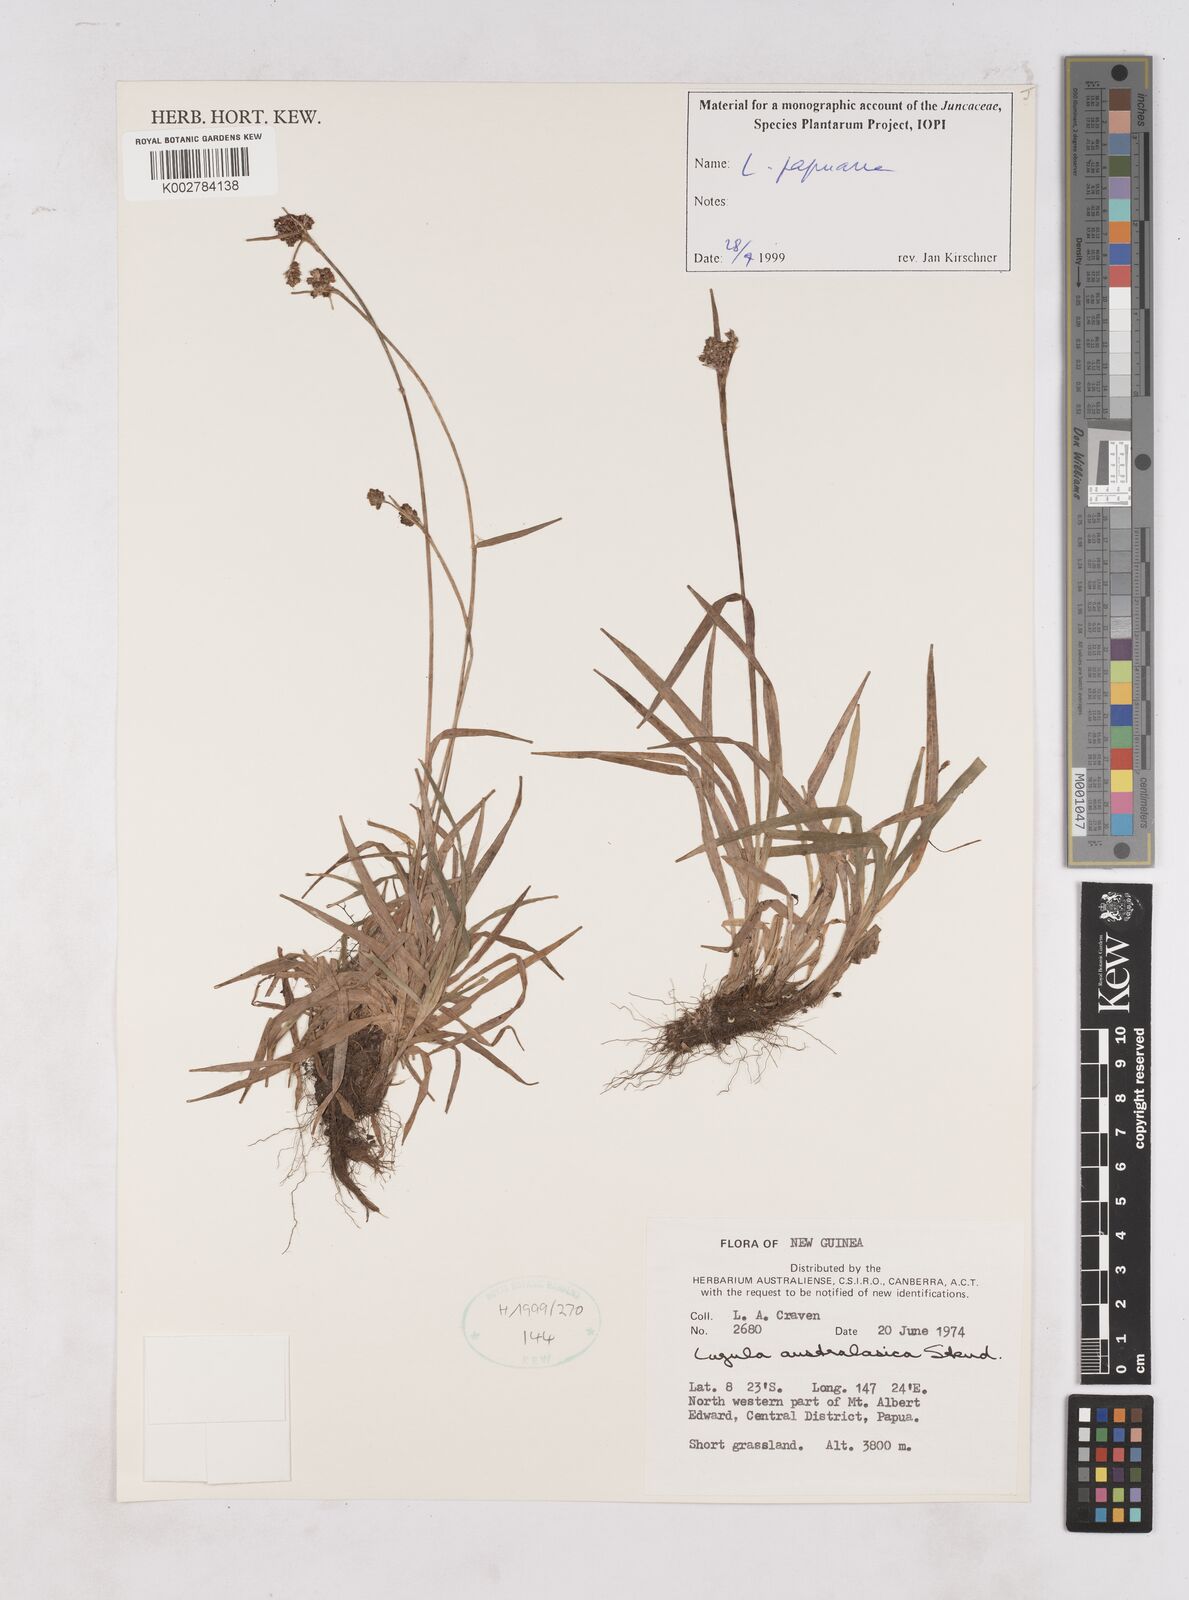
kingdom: Plantae
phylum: Tracheophyta
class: Liliopsida
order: Poales
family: Juncaceae
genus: Luzula
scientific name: Luzula papuana
